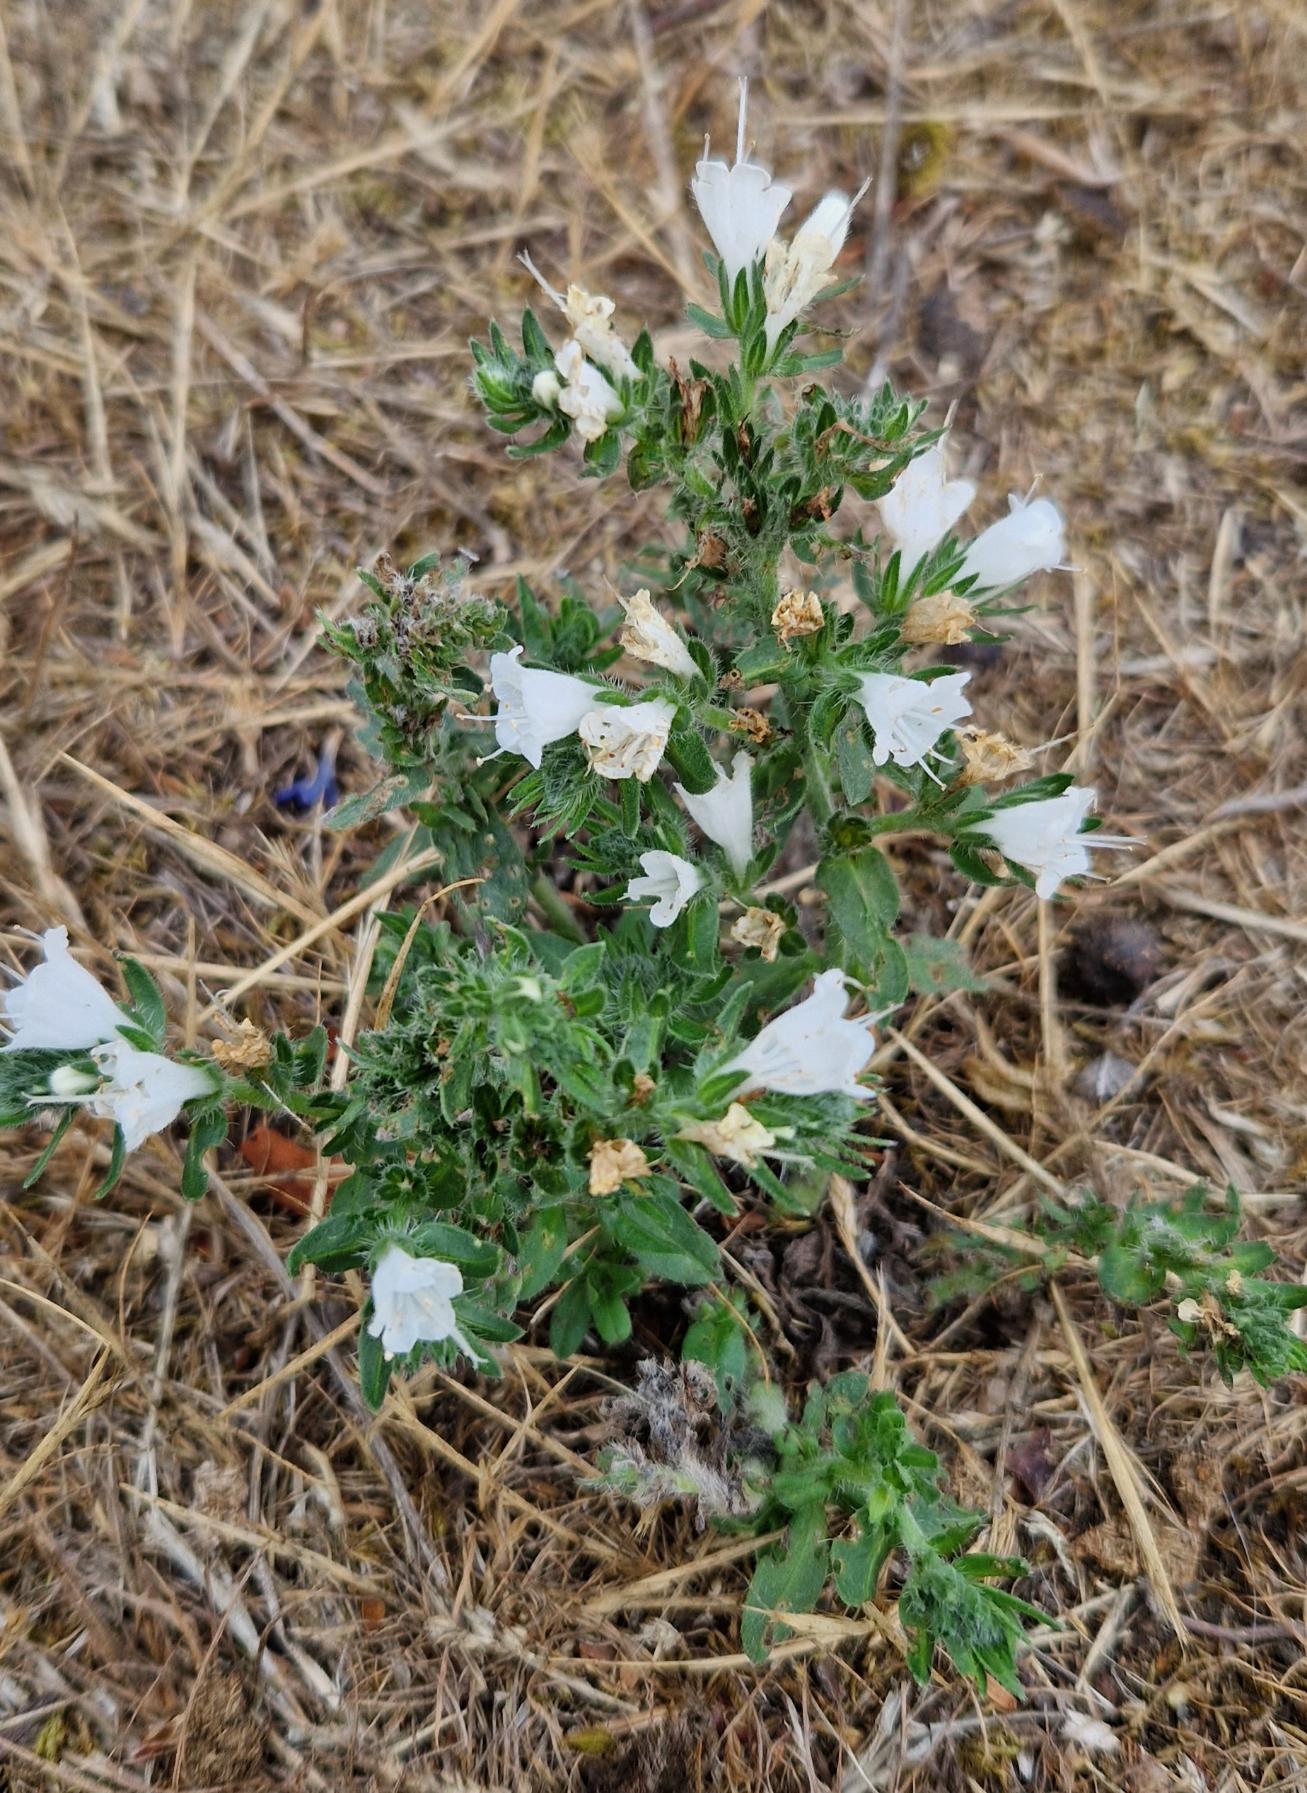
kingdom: Plantae
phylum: Tracheophyta
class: Magnoliopsida
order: Boraginales
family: Boraginaceae
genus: Echium
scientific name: Echium plantagineum
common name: Vejbred-slangehoved
